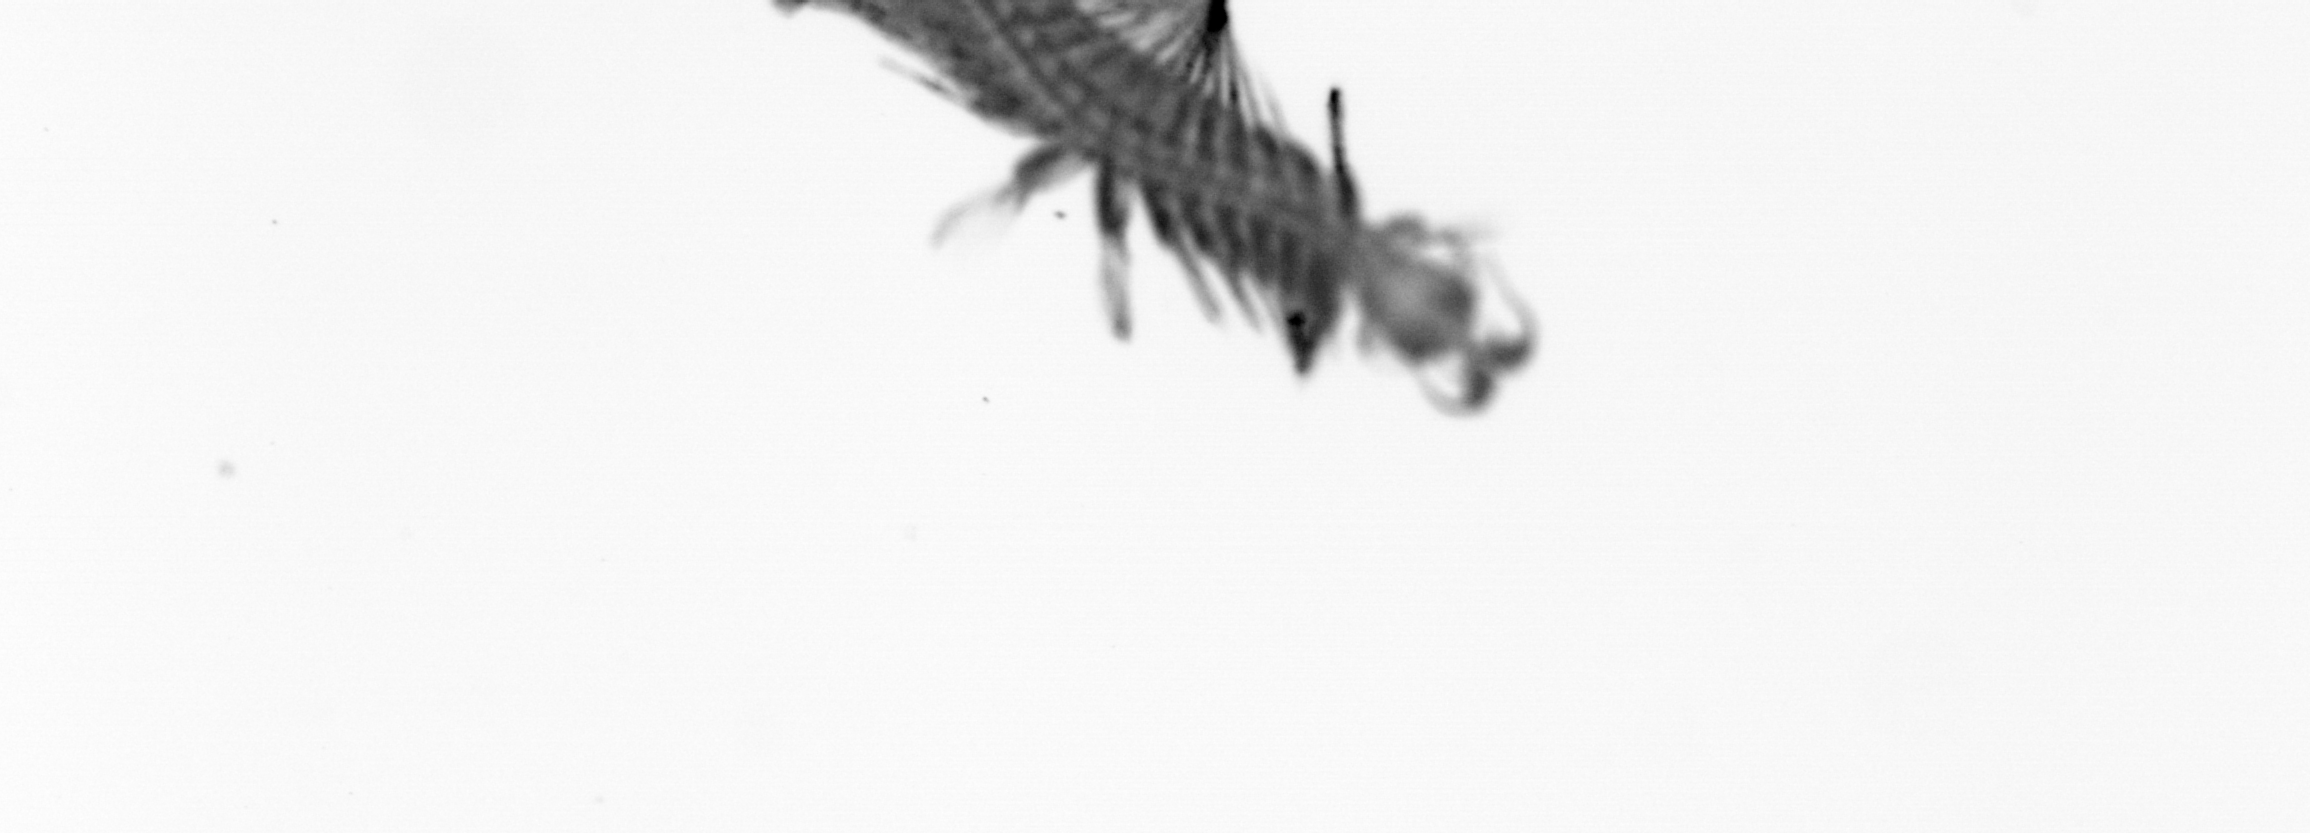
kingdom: Animalia
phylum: Annelida
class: Polychaeta
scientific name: Polychaeta
